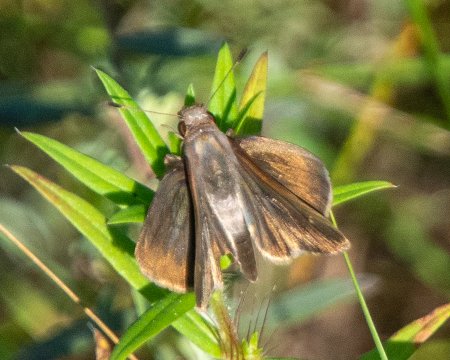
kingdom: Animalia
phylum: Arthropoda
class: Insecta
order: Lepidoptera
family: Hesperiidae
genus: Lerema
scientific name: Lerema accius
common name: Clouded Skipper
